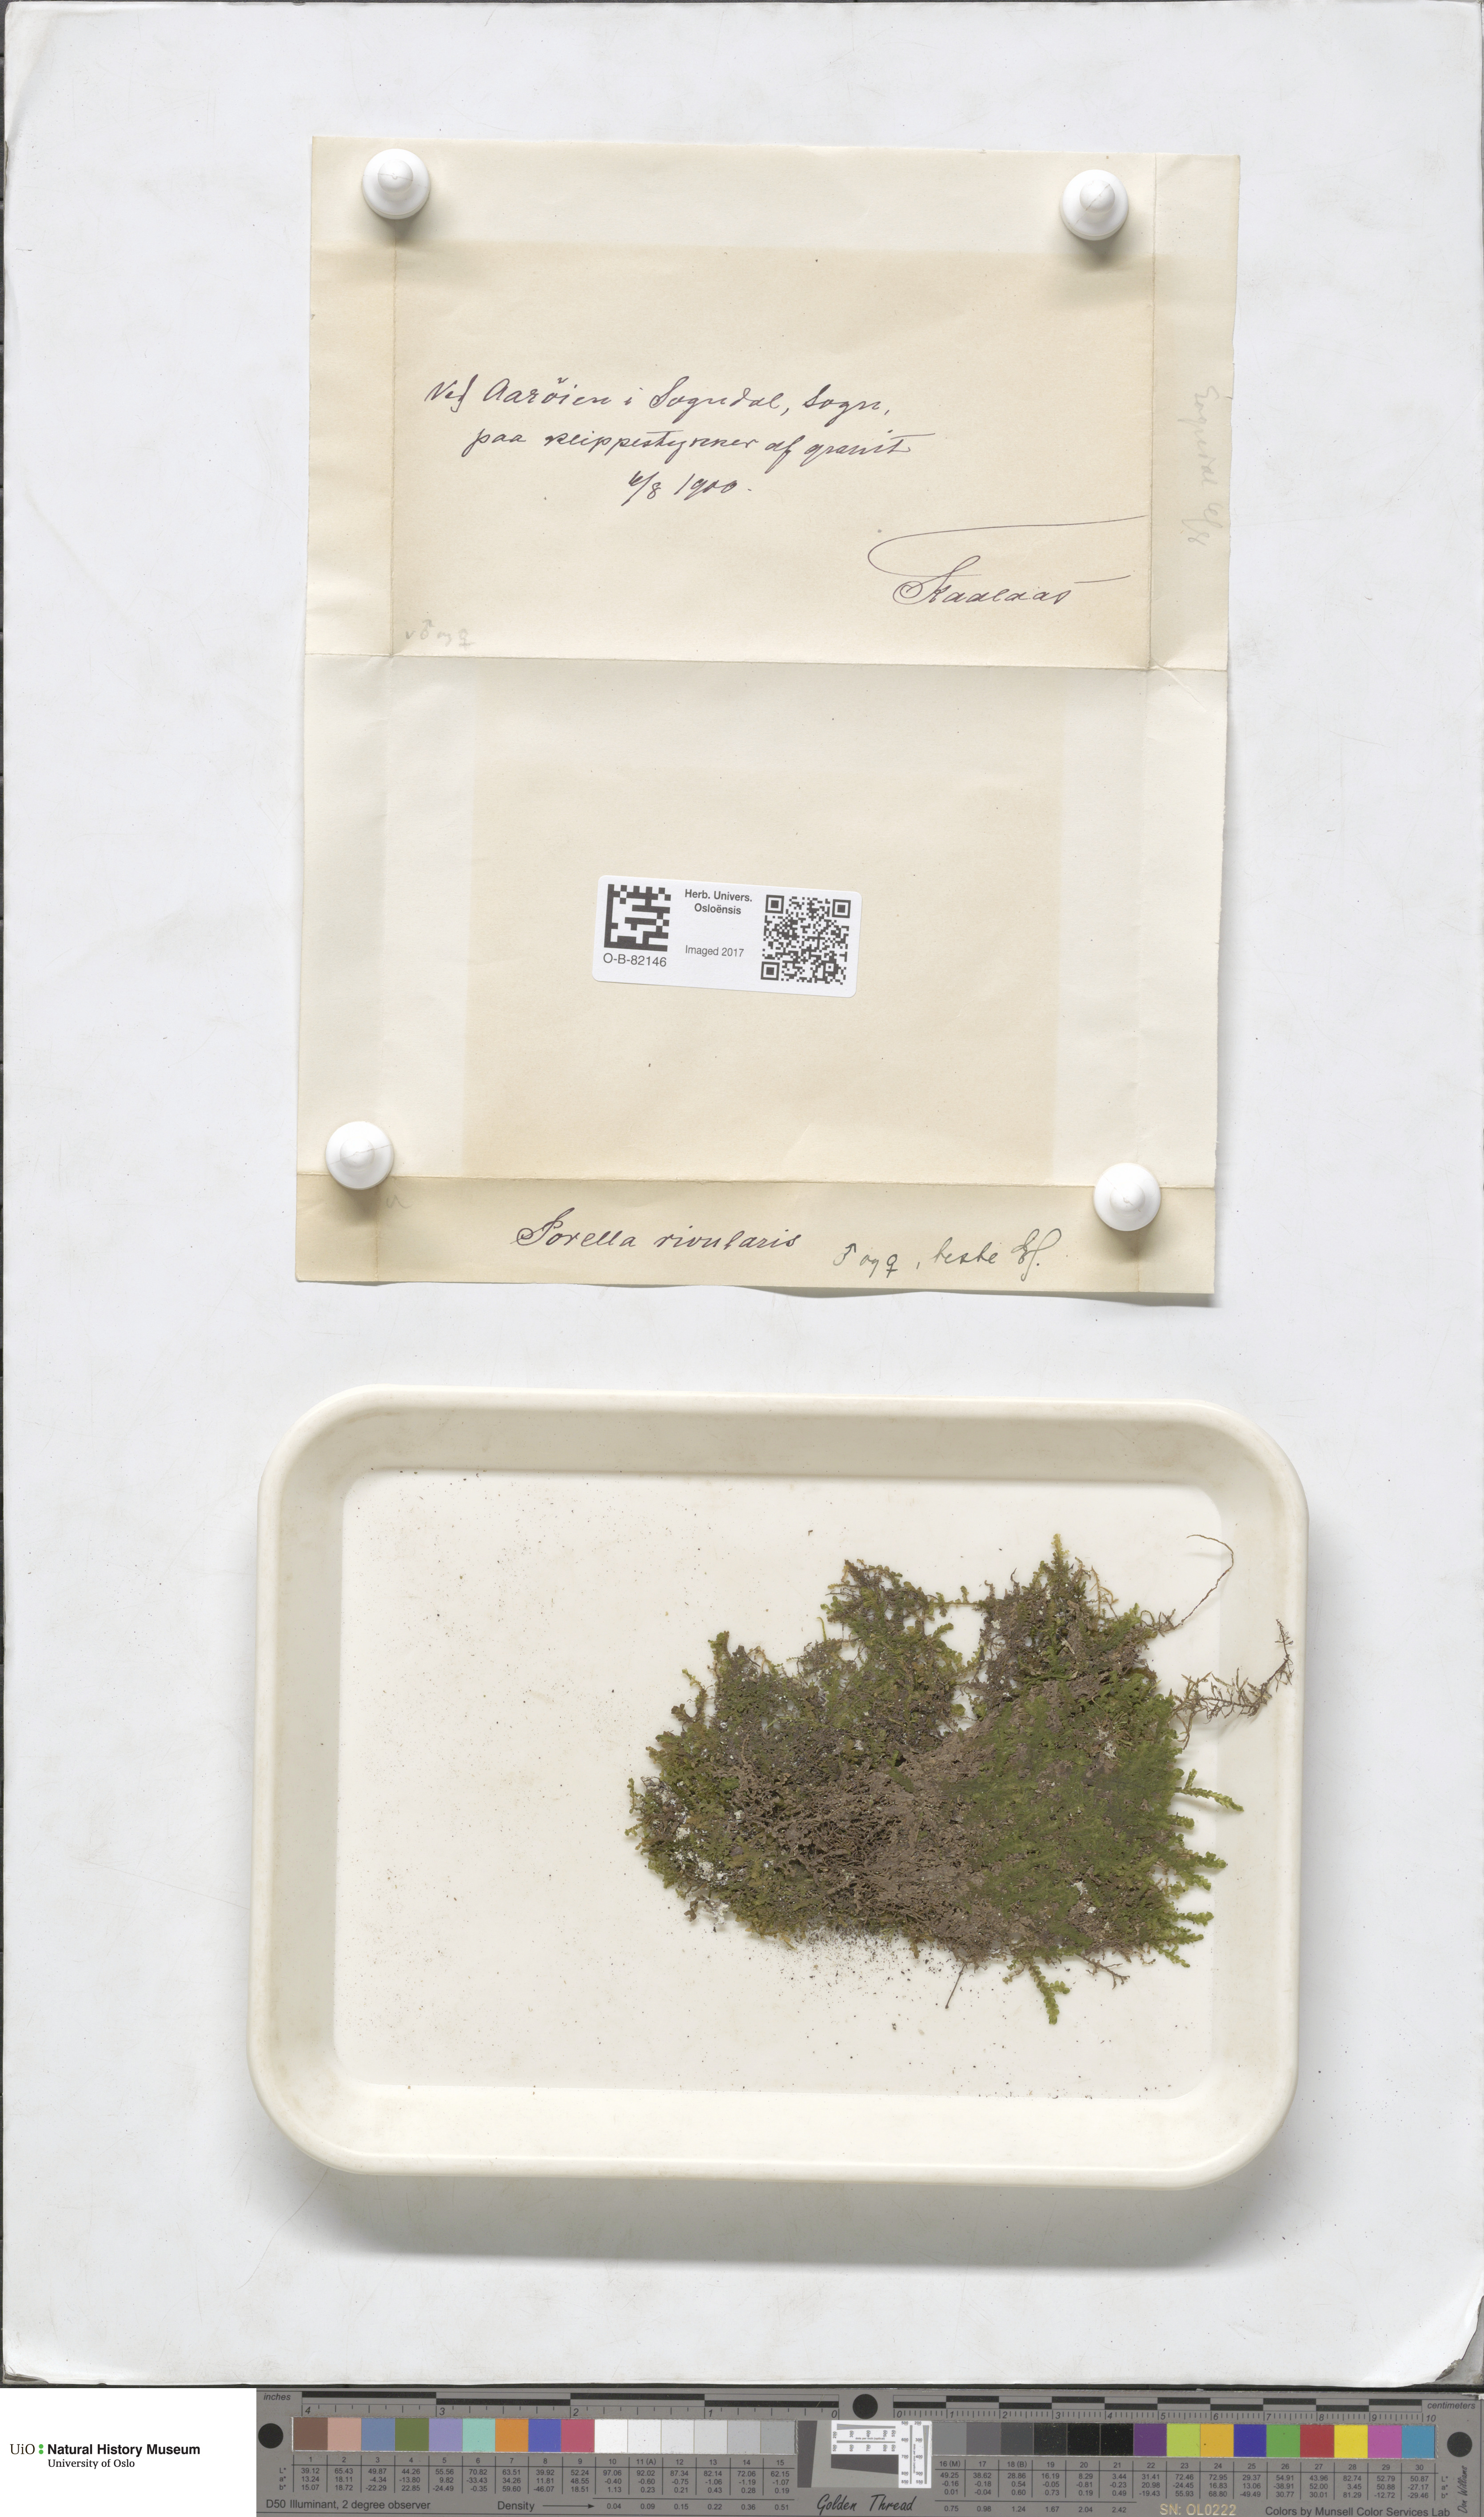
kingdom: Plantae
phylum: Marchantiophyta
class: Jungermanniopsida
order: Porellales
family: Porellaceae
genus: Porella
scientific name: Porella cordaeana
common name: Cliff scalewort
